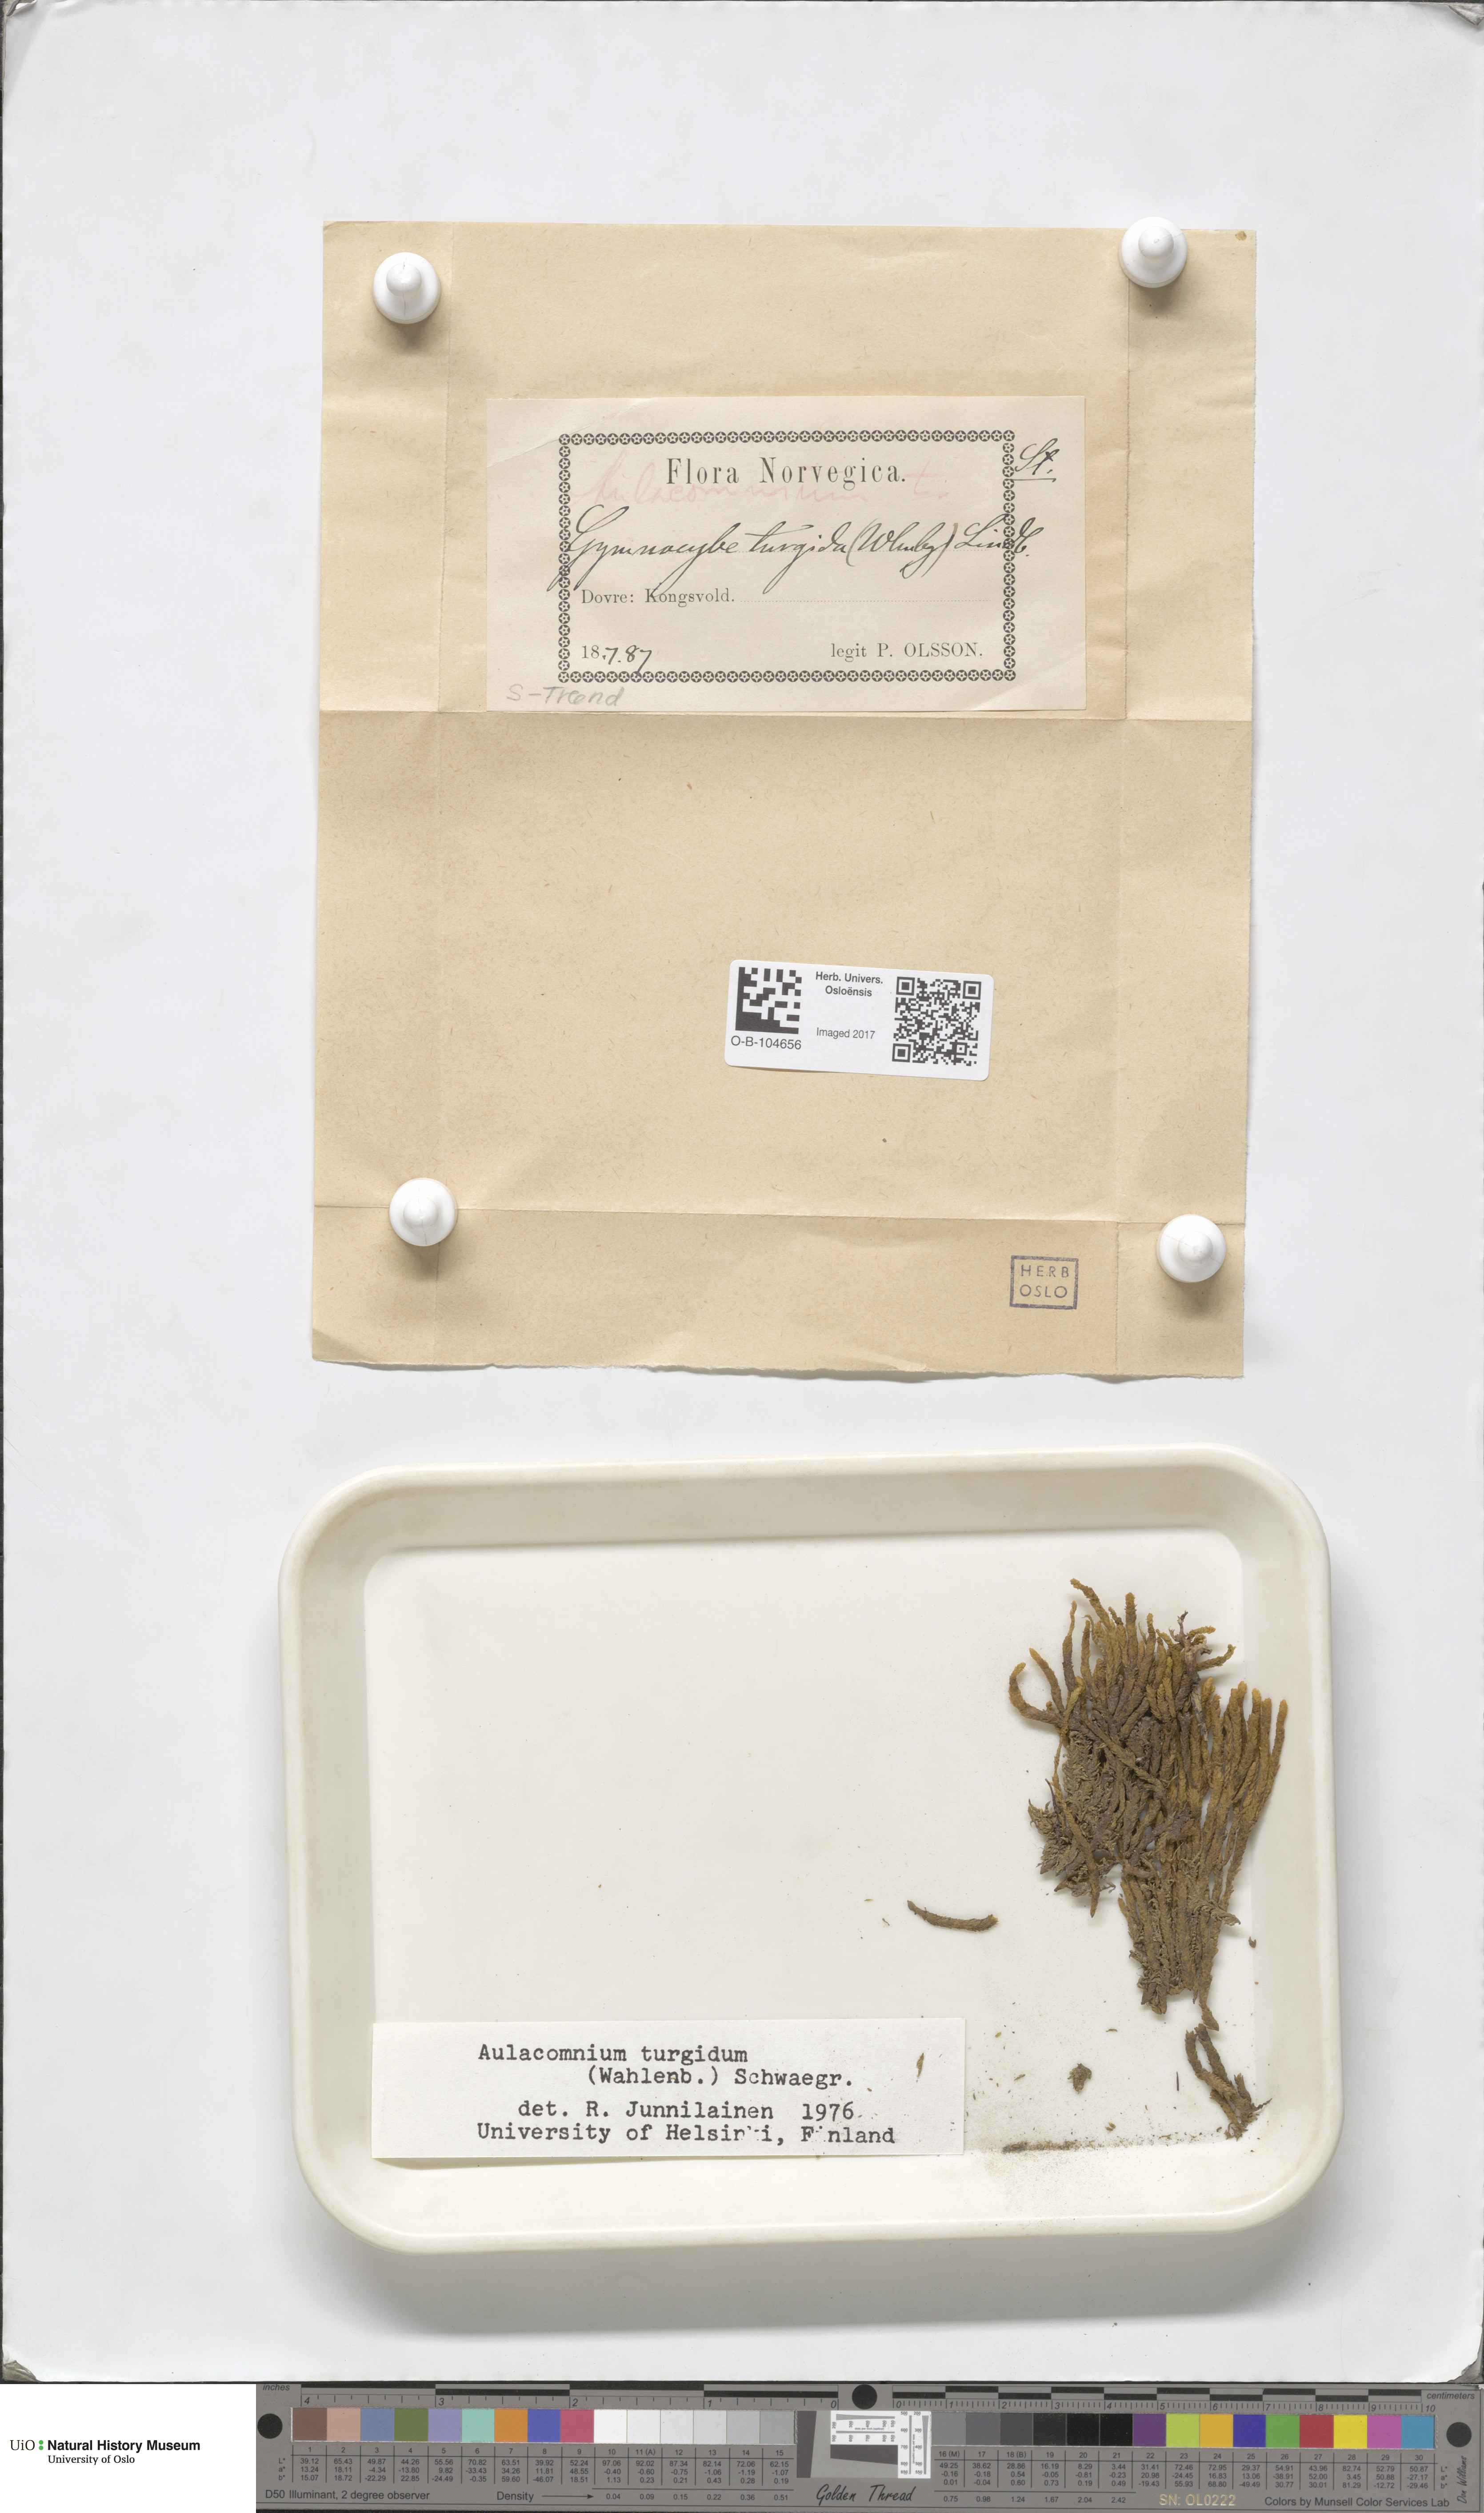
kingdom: Plantae
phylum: Bryophyta
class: Bryopsida
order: Aulacomniales
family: Aulacomniaceae
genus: Aulacomnium
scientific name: Aulacomnium turgidum
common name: Mountain groove moss
